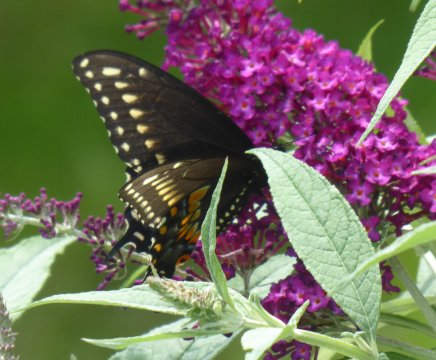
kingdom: Animalia
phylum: Arthropoda
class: Insecta
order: Lepidoptera
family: Papilionidae
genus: Papilio
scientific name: Papilio polyxenes
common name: Black Swallowtail
